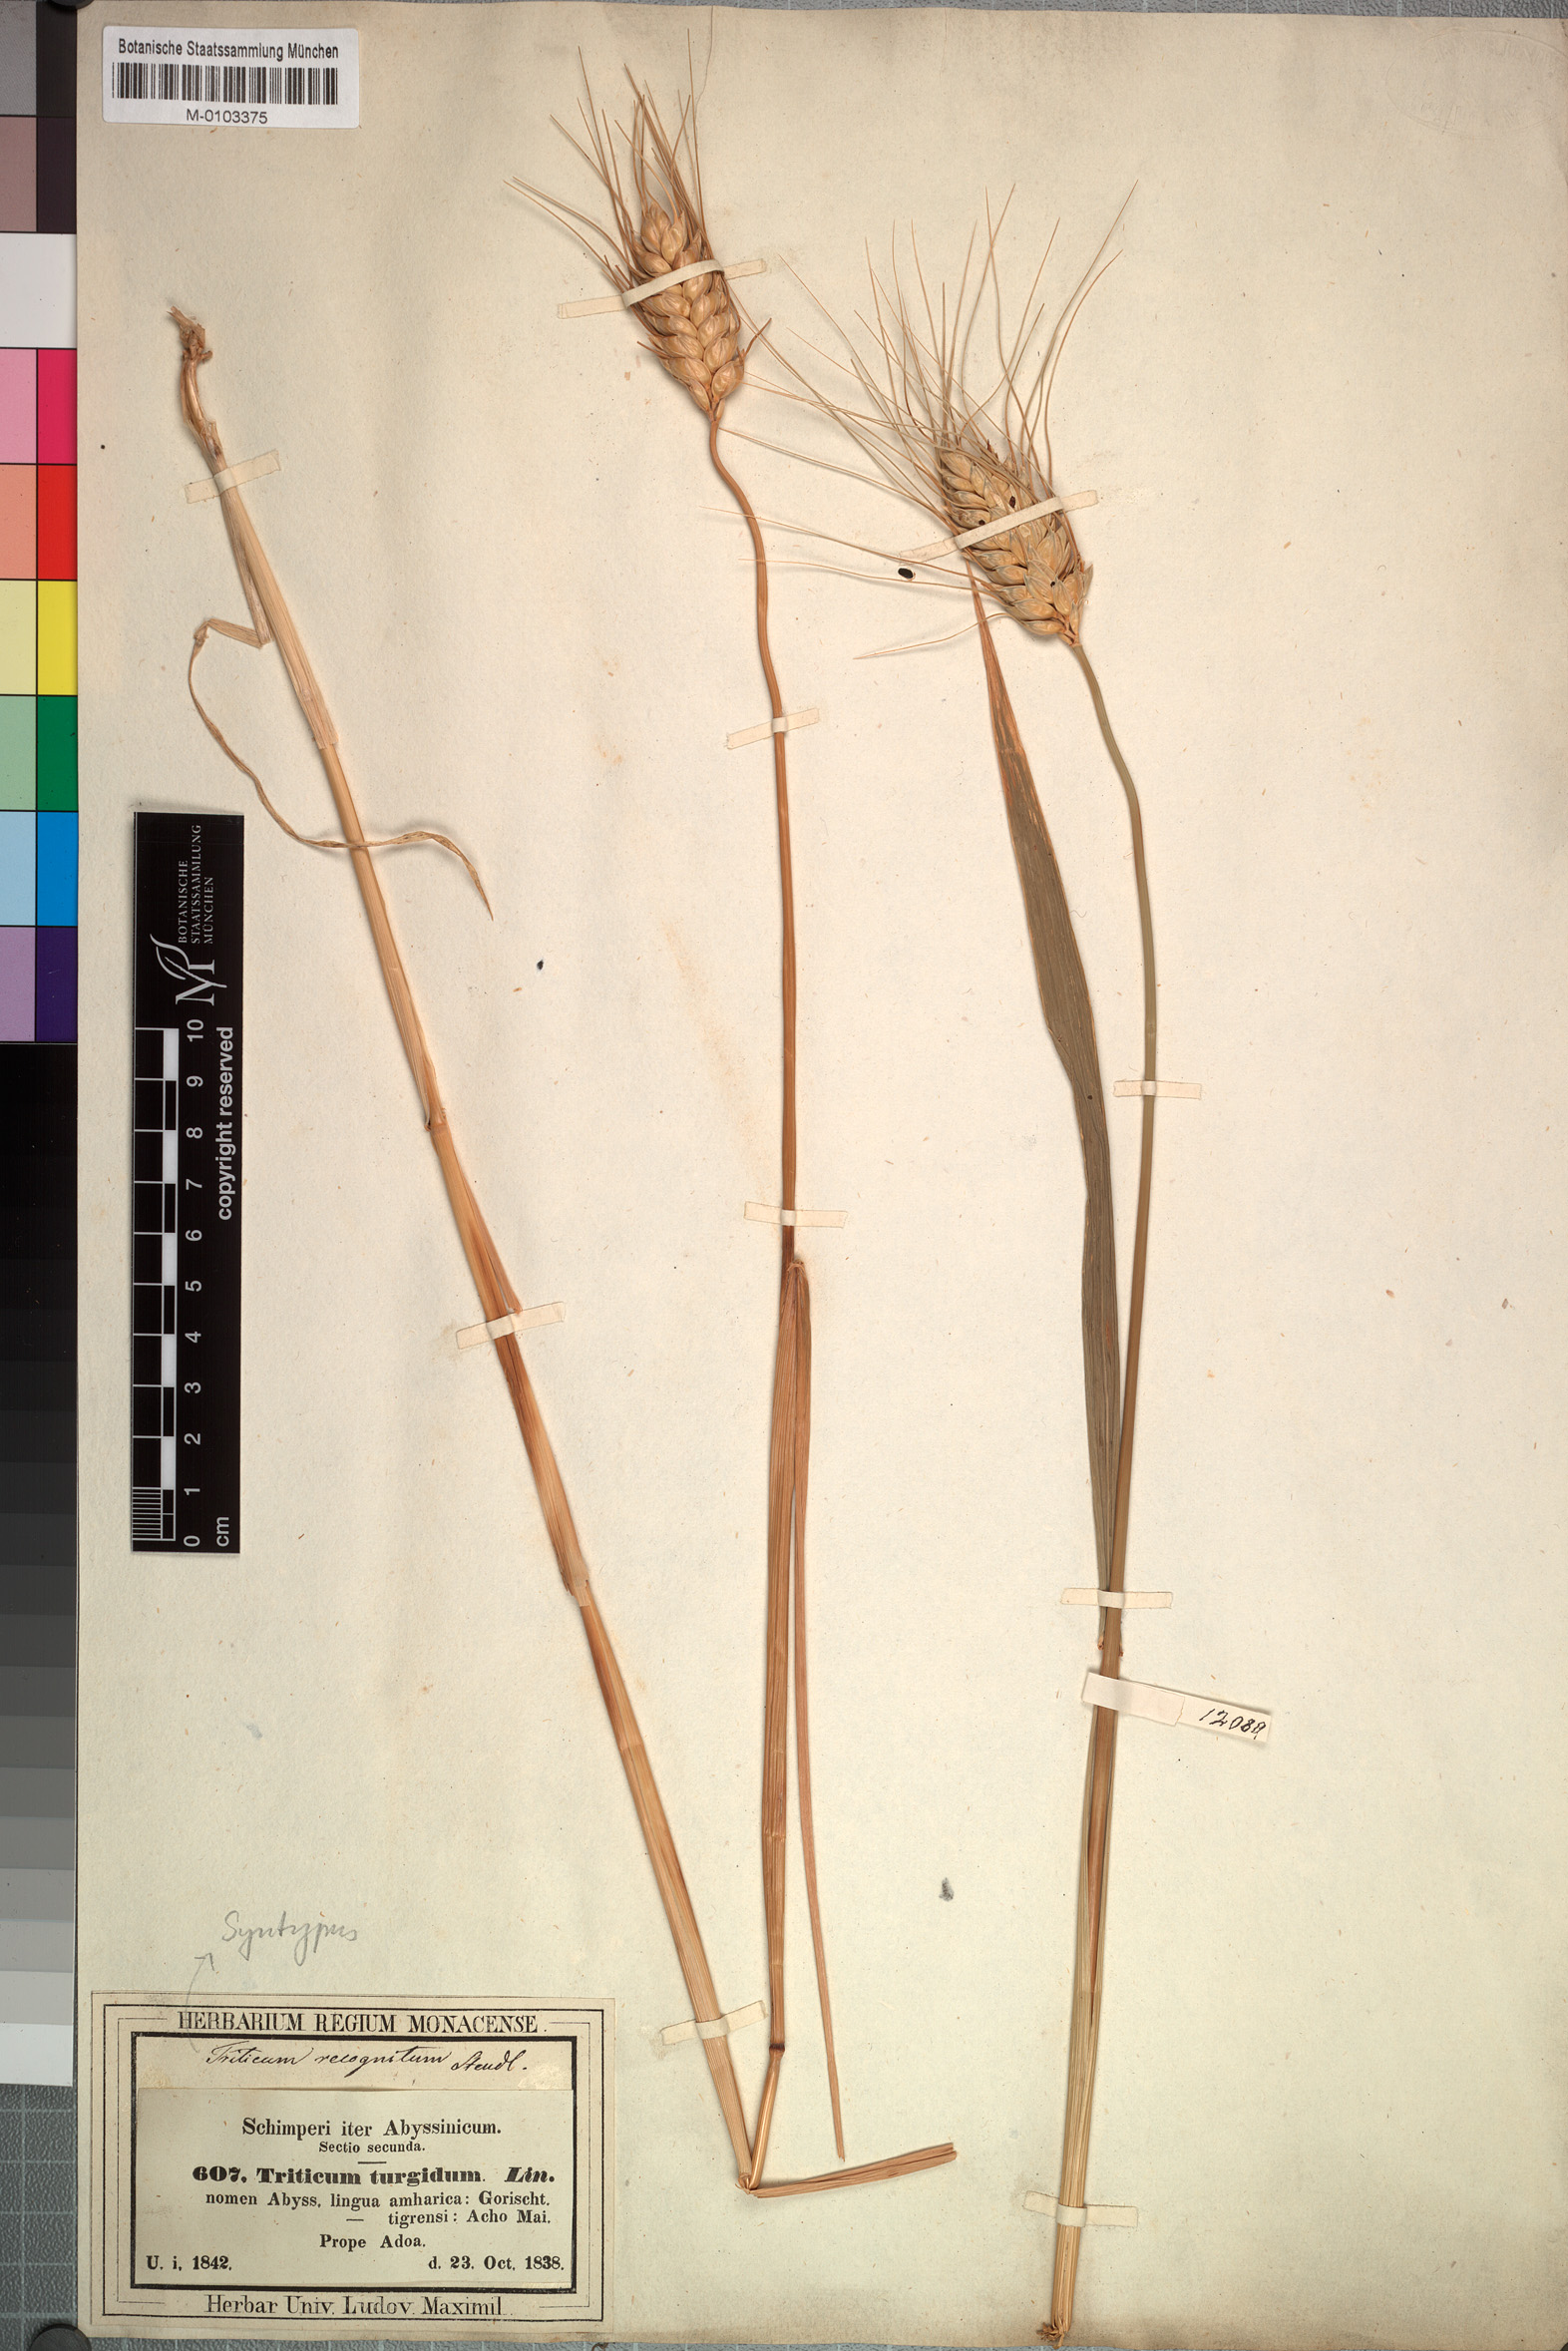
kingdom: Plantae
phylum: Tracheophyta
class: Liliopsida
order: Poales
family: Poaceae
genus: Triticum
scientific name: Triticum turgidum
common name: Rivet wheat
